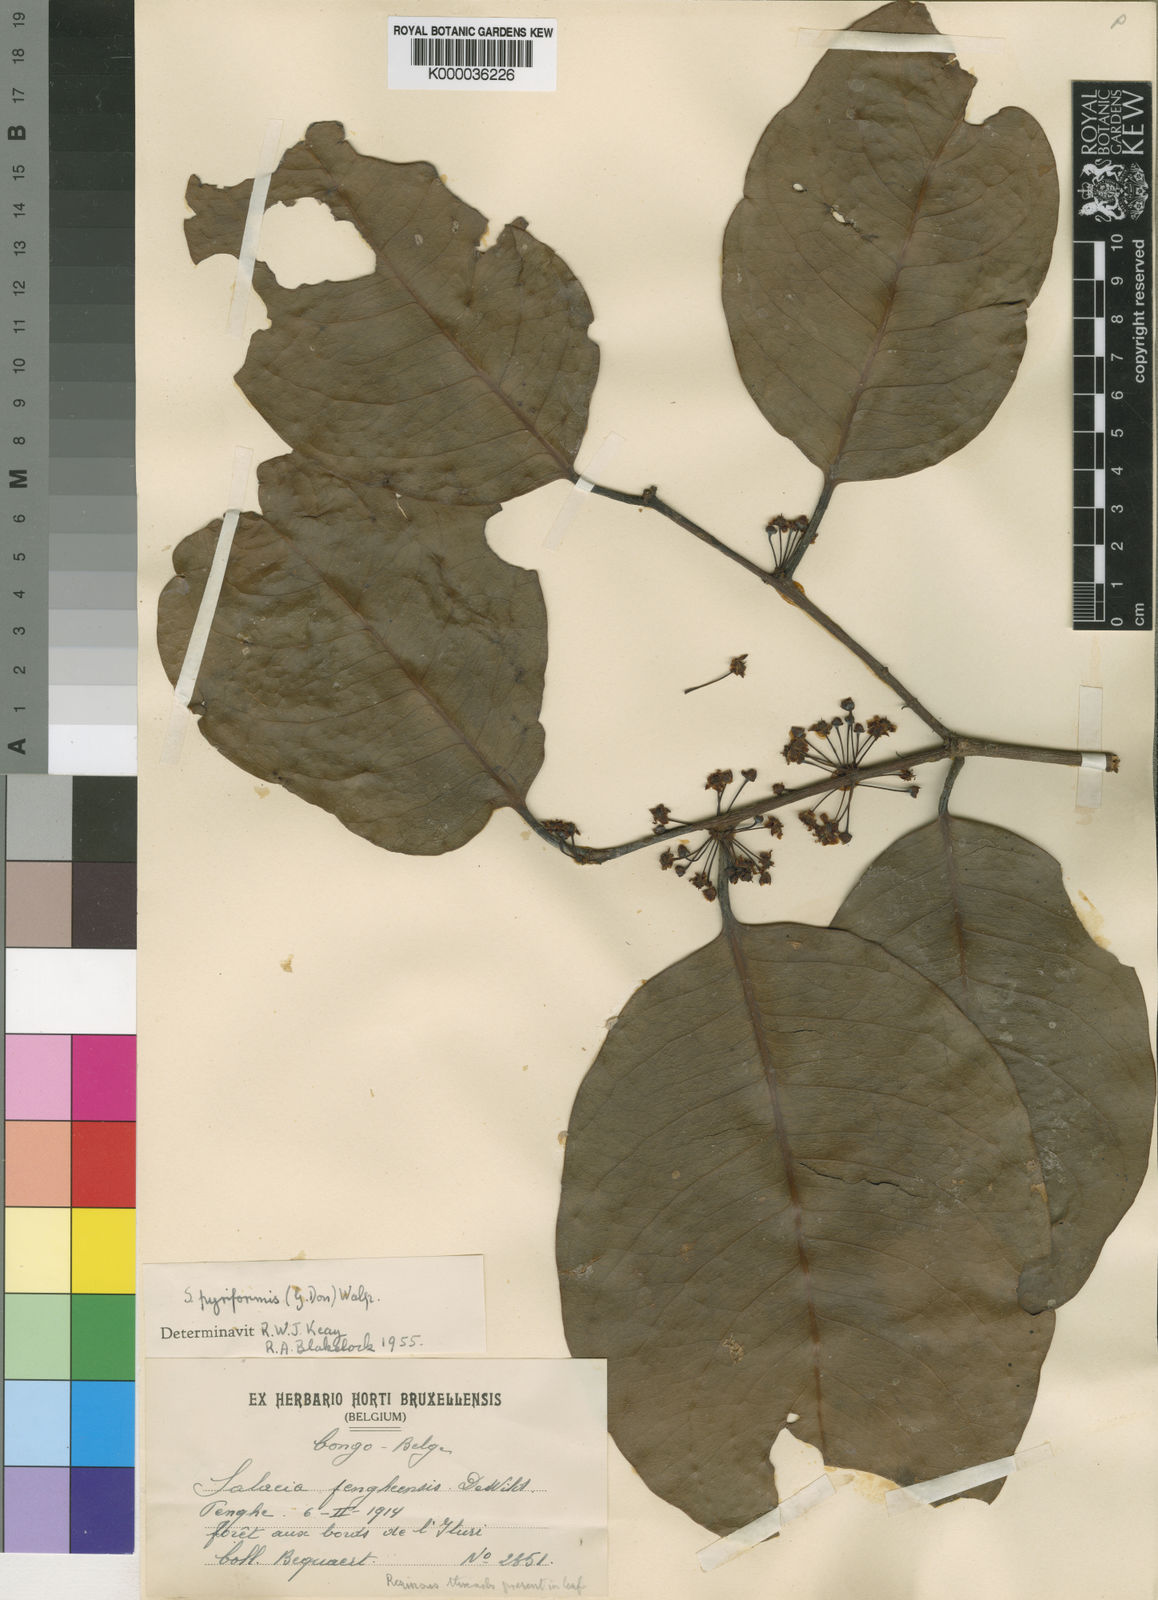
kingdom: Plantae
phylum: Tracheophyta
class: Magnoliopsida
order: Celastrales
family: Celastraceae
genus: Salacia
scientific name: Salacia
